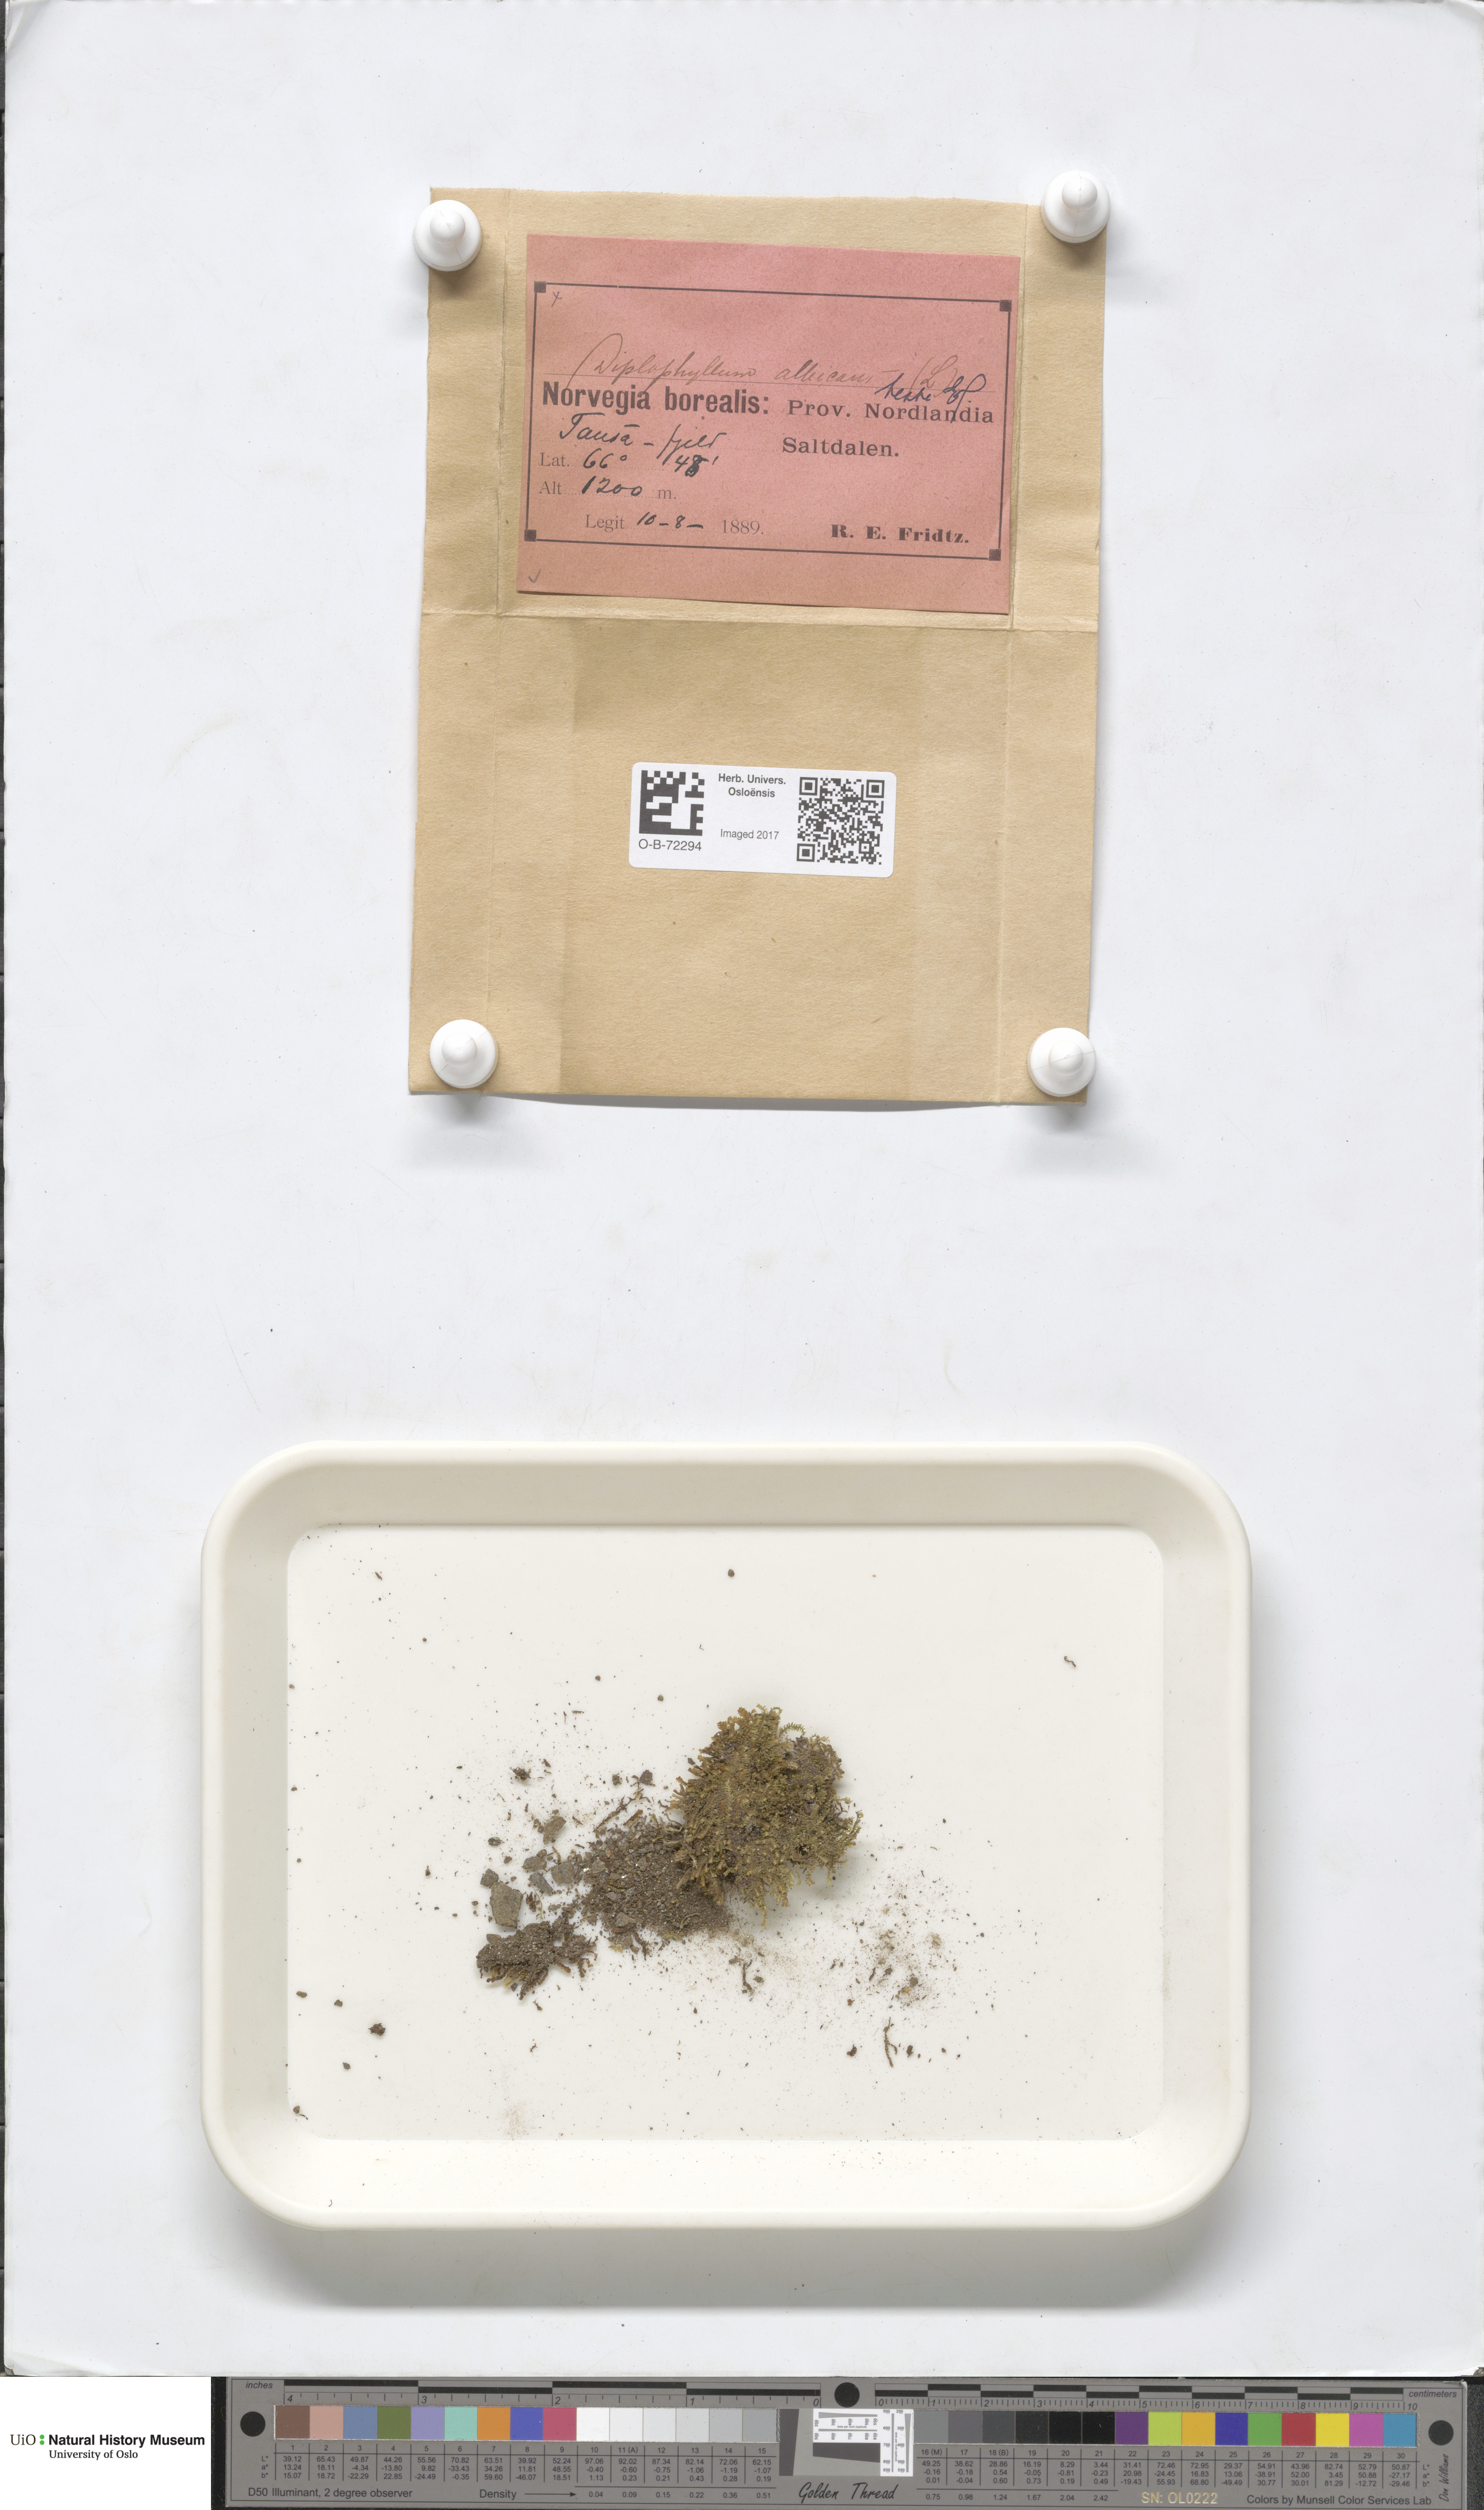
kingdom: Plantae
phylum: Marchantiophyta
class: Jungermanniopsida
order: Jungermanniales
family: Scapaniaceae
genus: Diplophyllum
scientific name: Diplophyllum albicans
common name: White earwort
